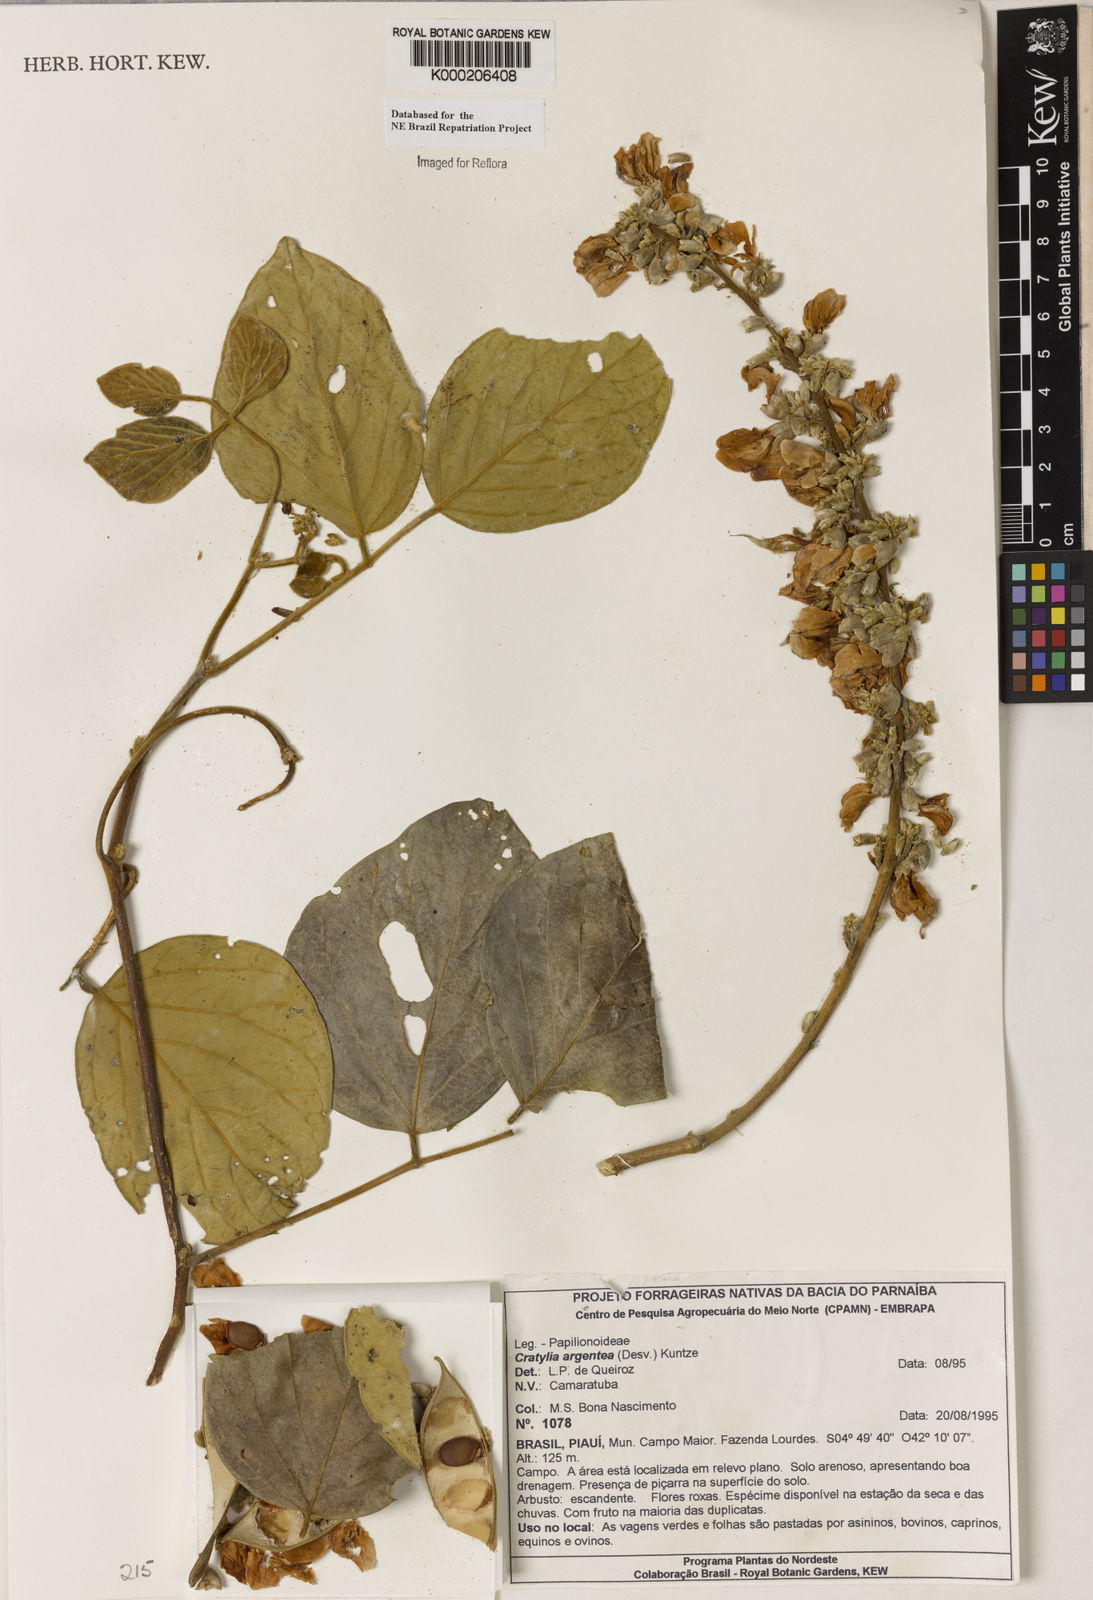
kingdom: Plantae
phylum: Tracheophyta
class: Magnoliopsida
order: Fabales
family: Fabaceae
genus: Cratylia
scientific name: Cratylia argentea
